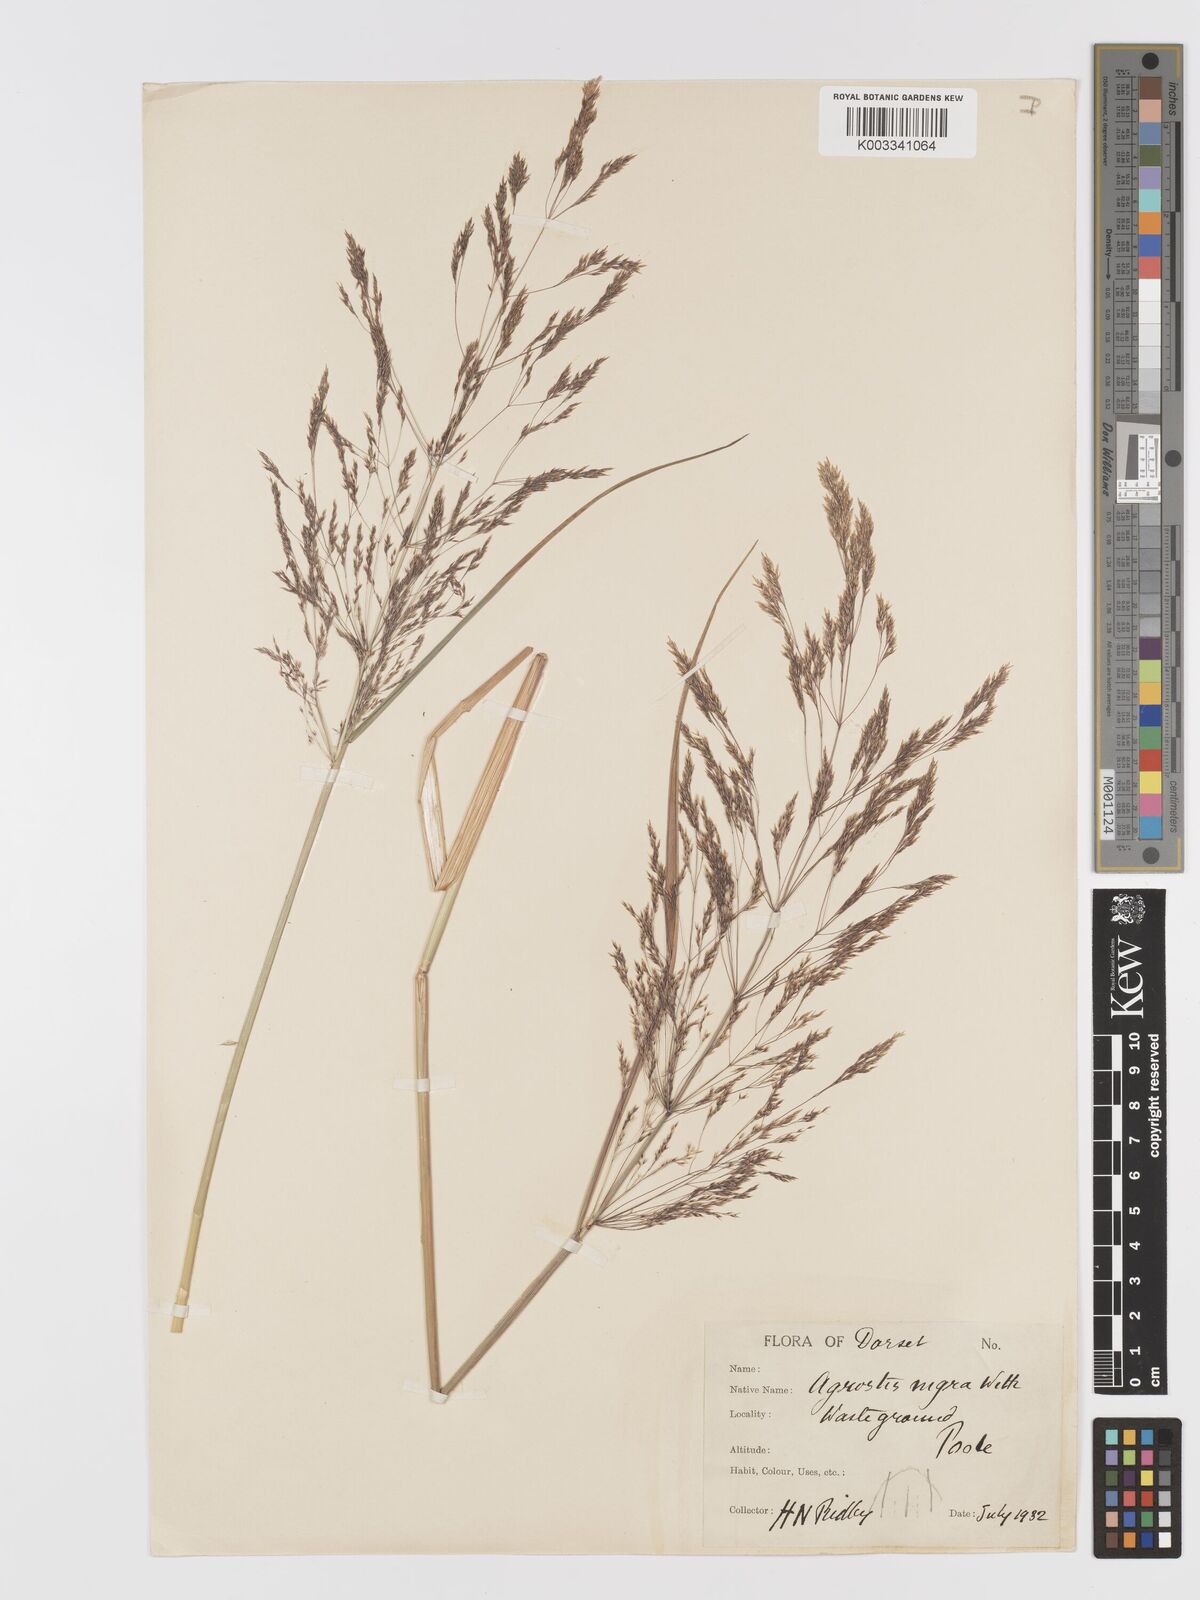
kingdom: Plantae
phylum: Tracheophyta
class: Liliopsida
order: Poales
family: Poaceae
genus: Agrostis
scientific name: Agrostis gigantea
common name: Black bent
